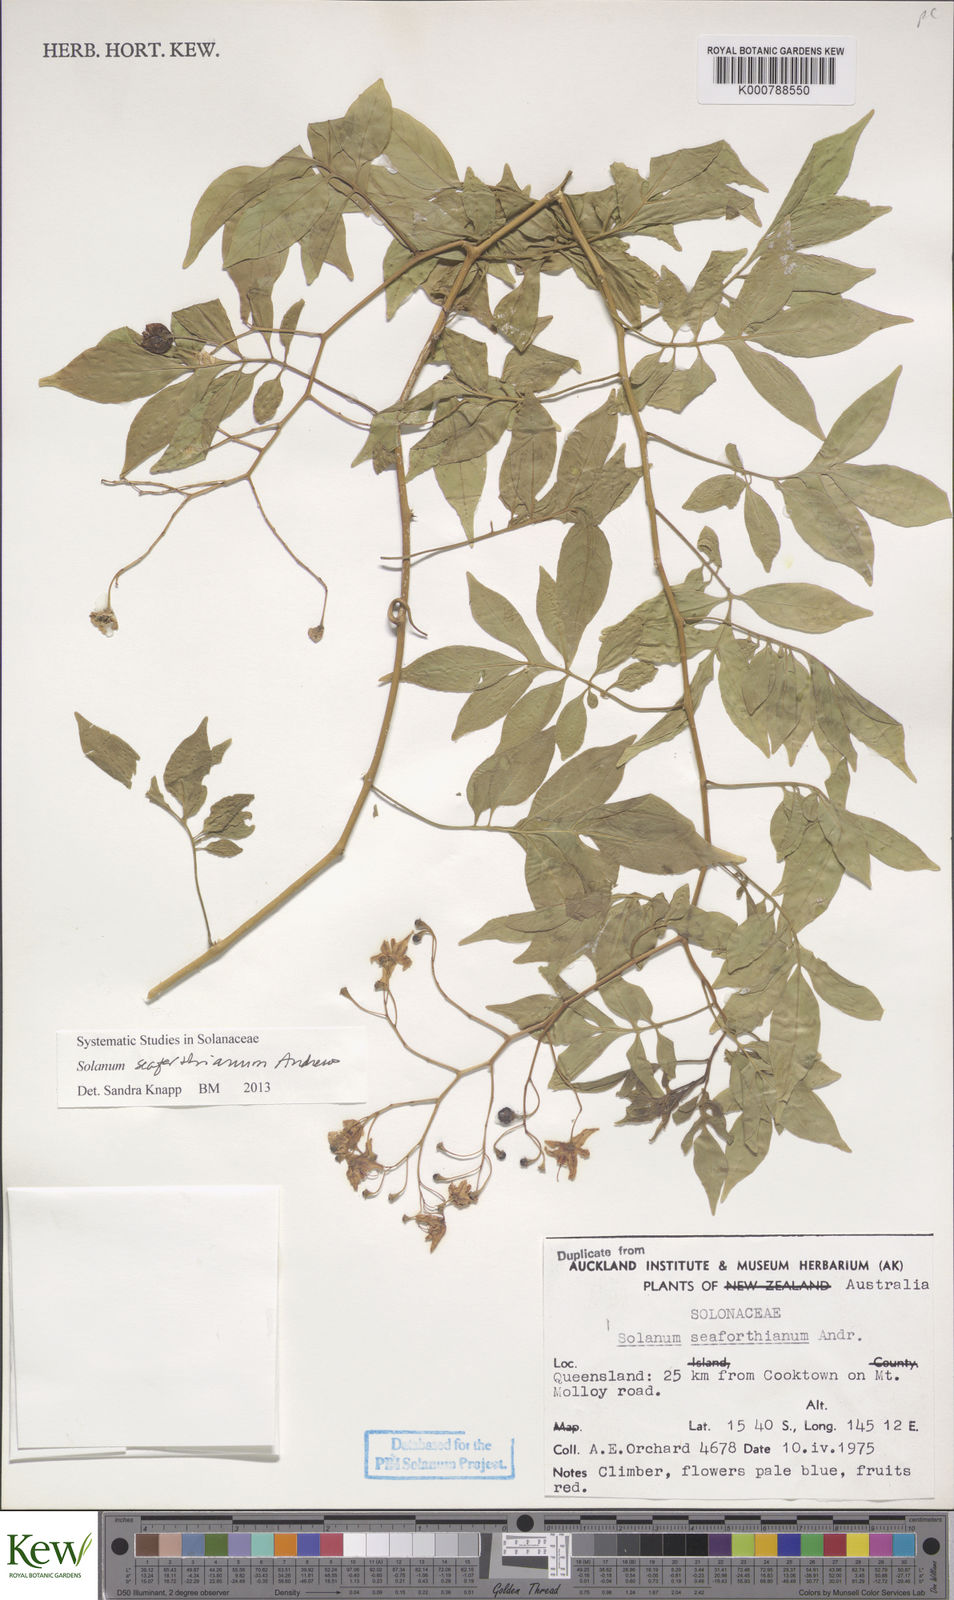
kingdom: Plantae
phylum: Tracheophyta
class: Magnoliopsida
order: Solanales
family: Solanaceae
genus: Solanum
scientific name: Solanum seaforthianum
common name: Brazilian nightshade
